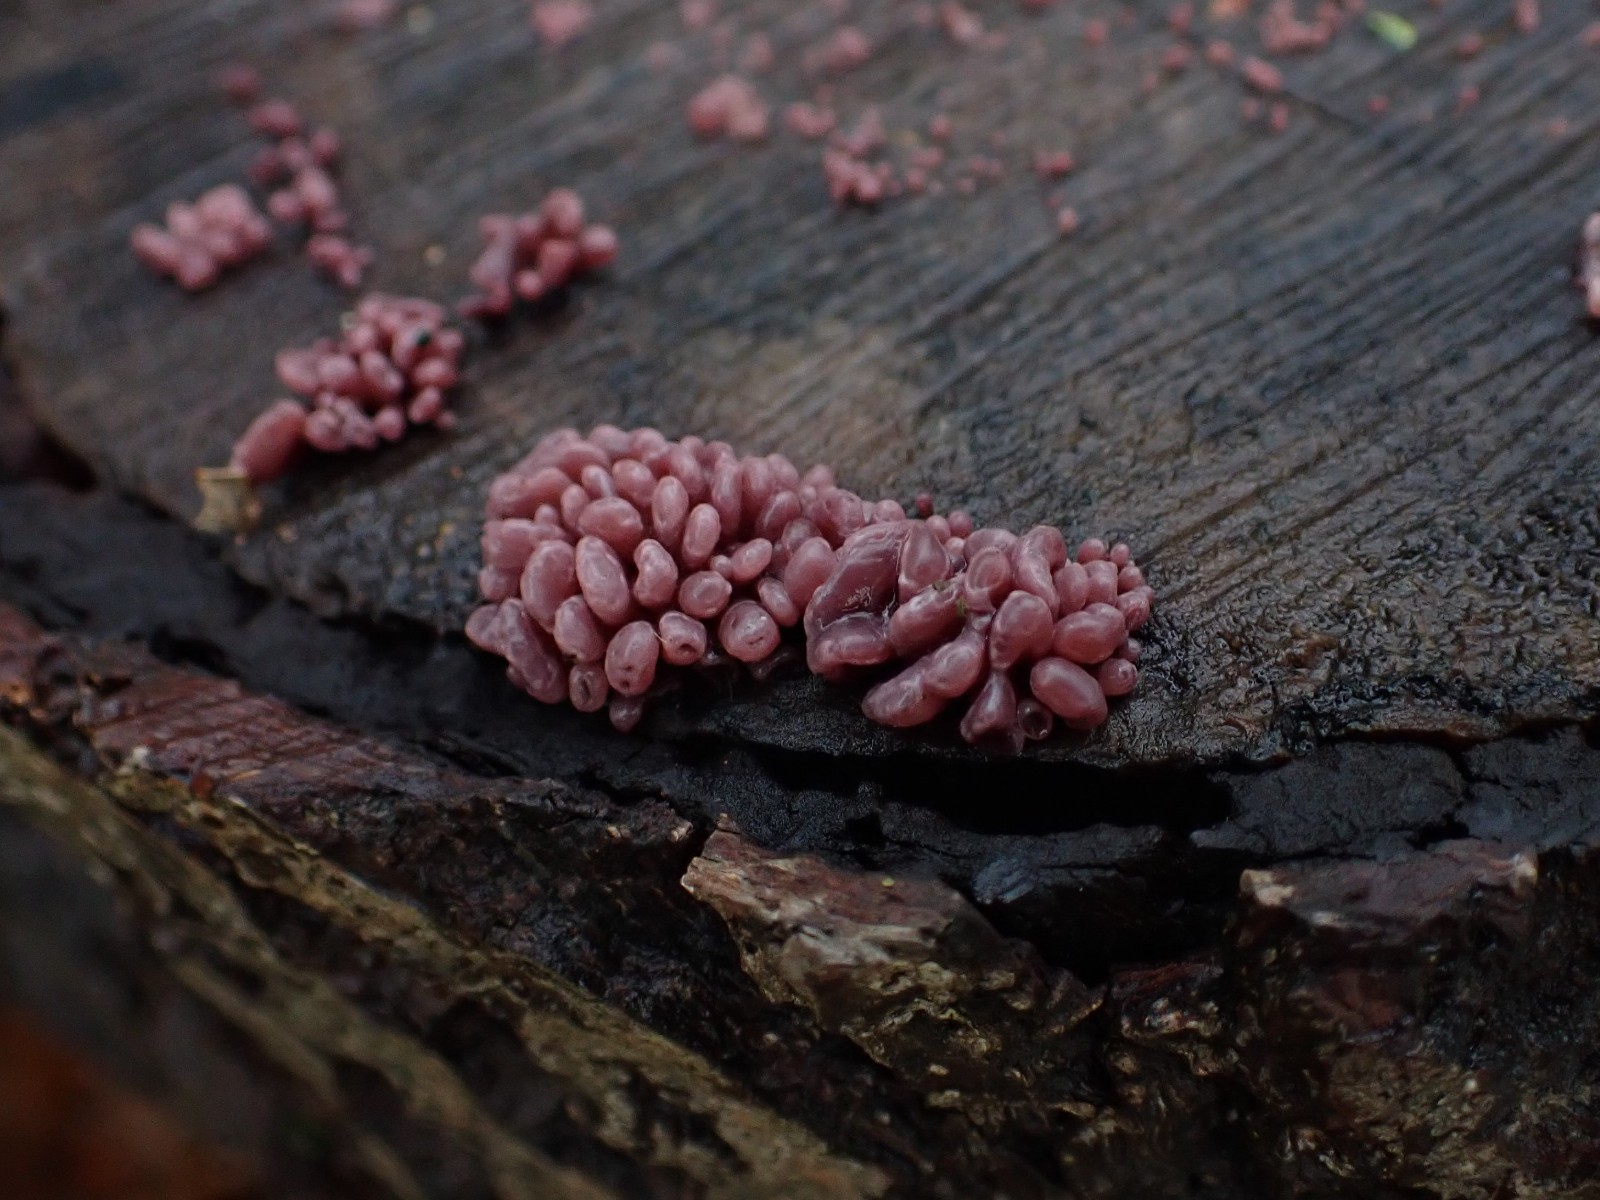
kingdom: Fungi
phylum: Ascomycota
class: Leotiomycetes
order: Helotiales
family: Gelatinodiscaceae
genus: Ascocoryne
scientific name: Ascocoryne sarcoides
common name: rødlilla sejskive
